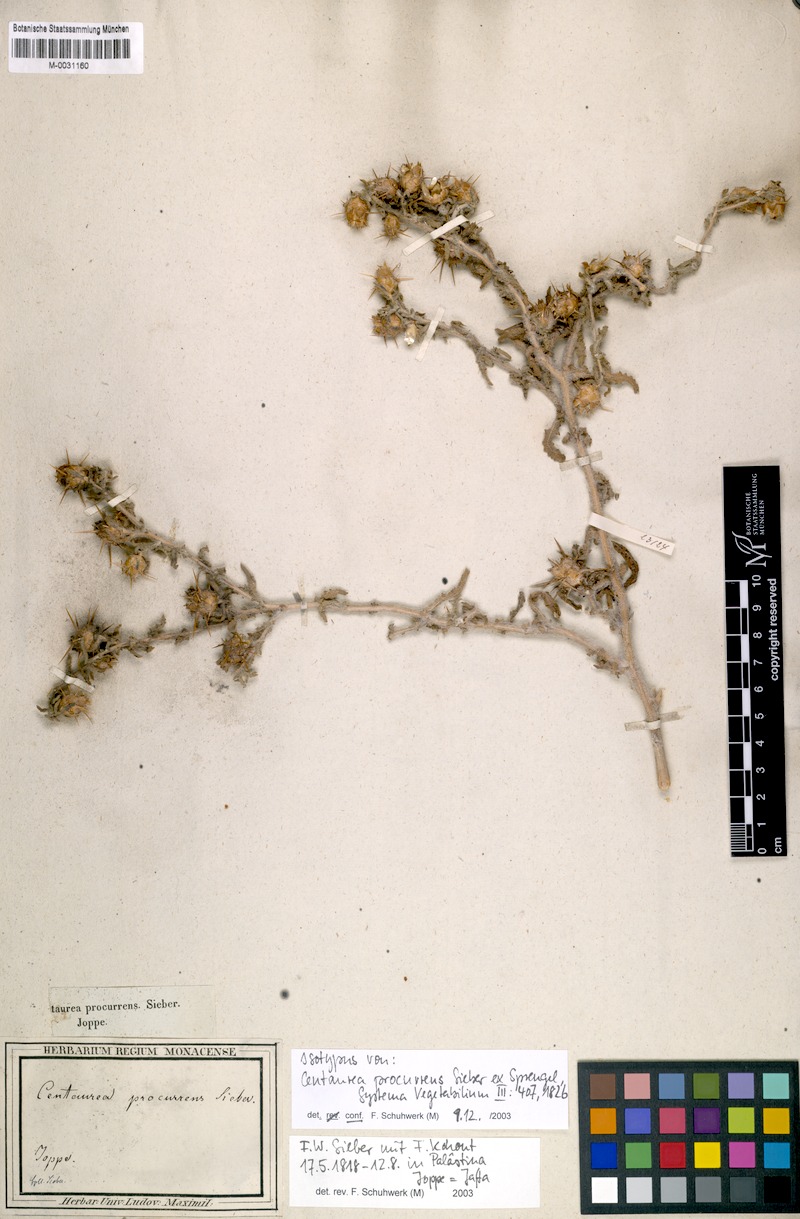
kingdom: Plantae
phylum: Tracheophyta
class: Magnoliopsida
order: Asterales
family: Asteraceae
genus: Centaurea
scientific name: Centaurea procurrens
